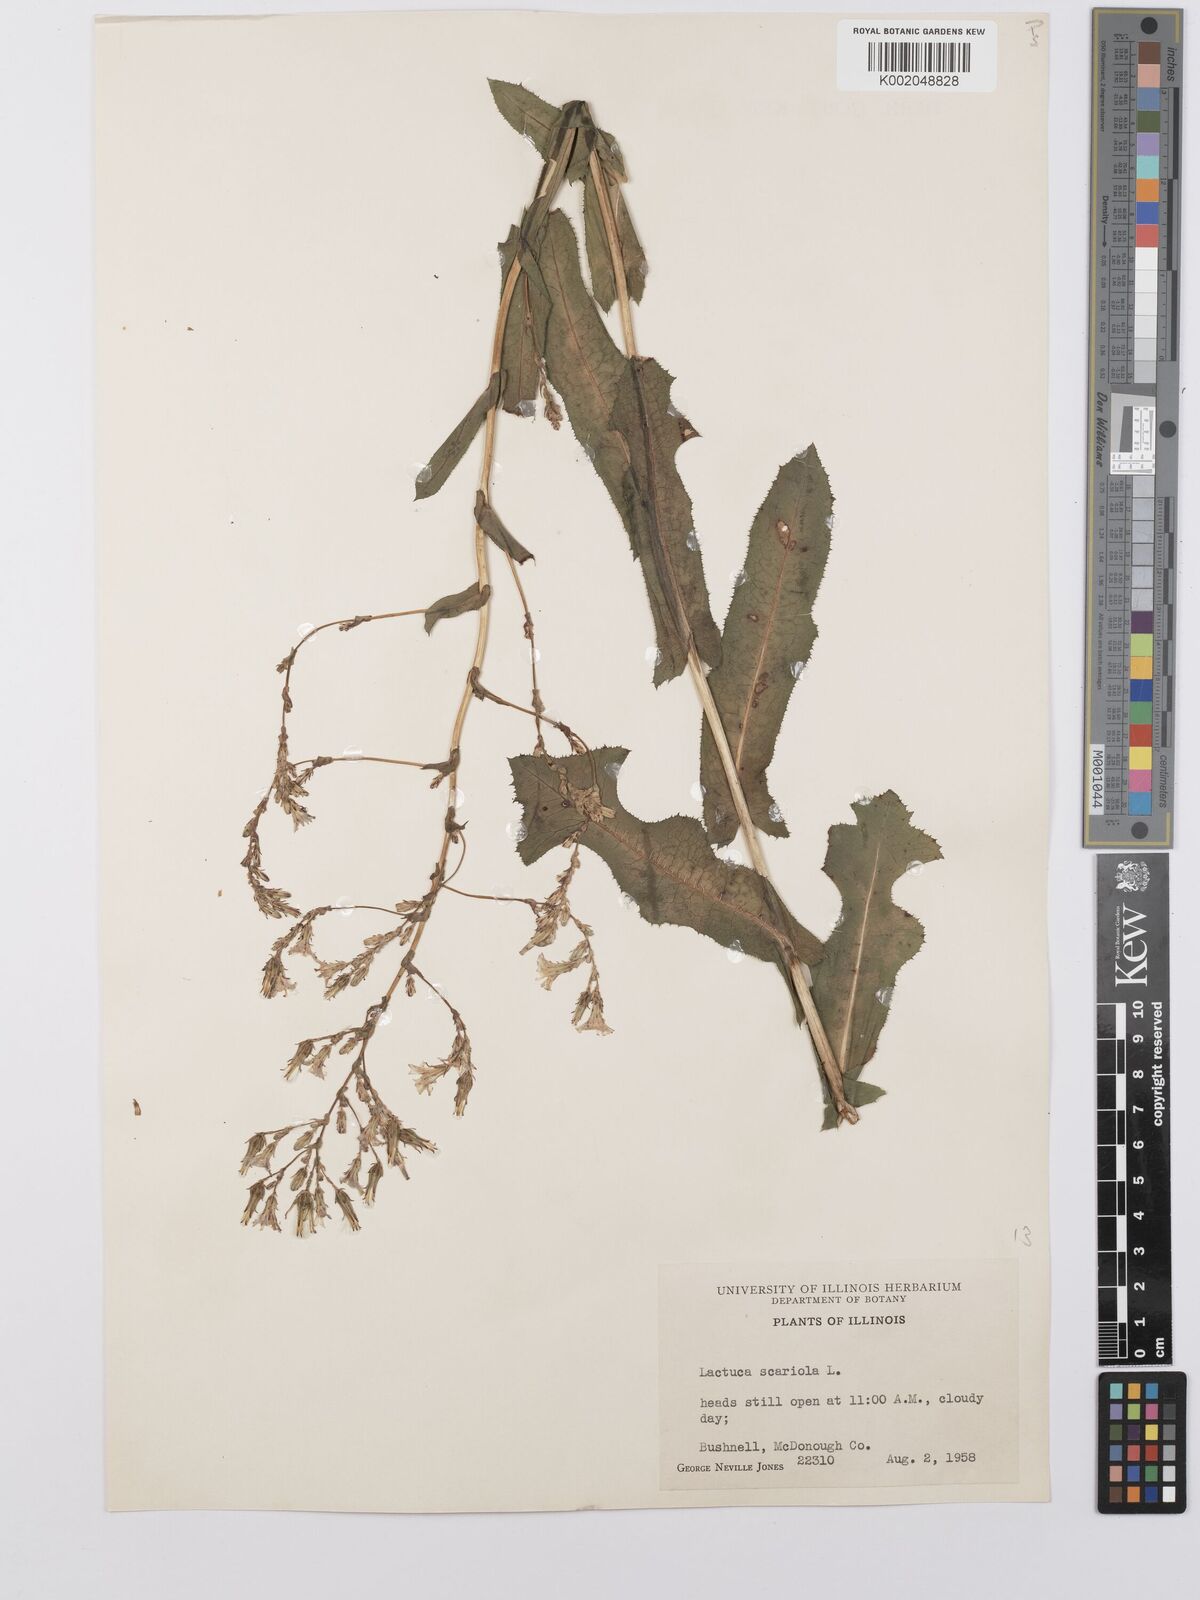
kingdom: Plantae
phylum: Tracheophyta
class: Magnoliopsida
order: Asterales
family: Asteraceae
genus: Lactuca
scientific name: Lactuca serriola
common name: Prickly lettuce
